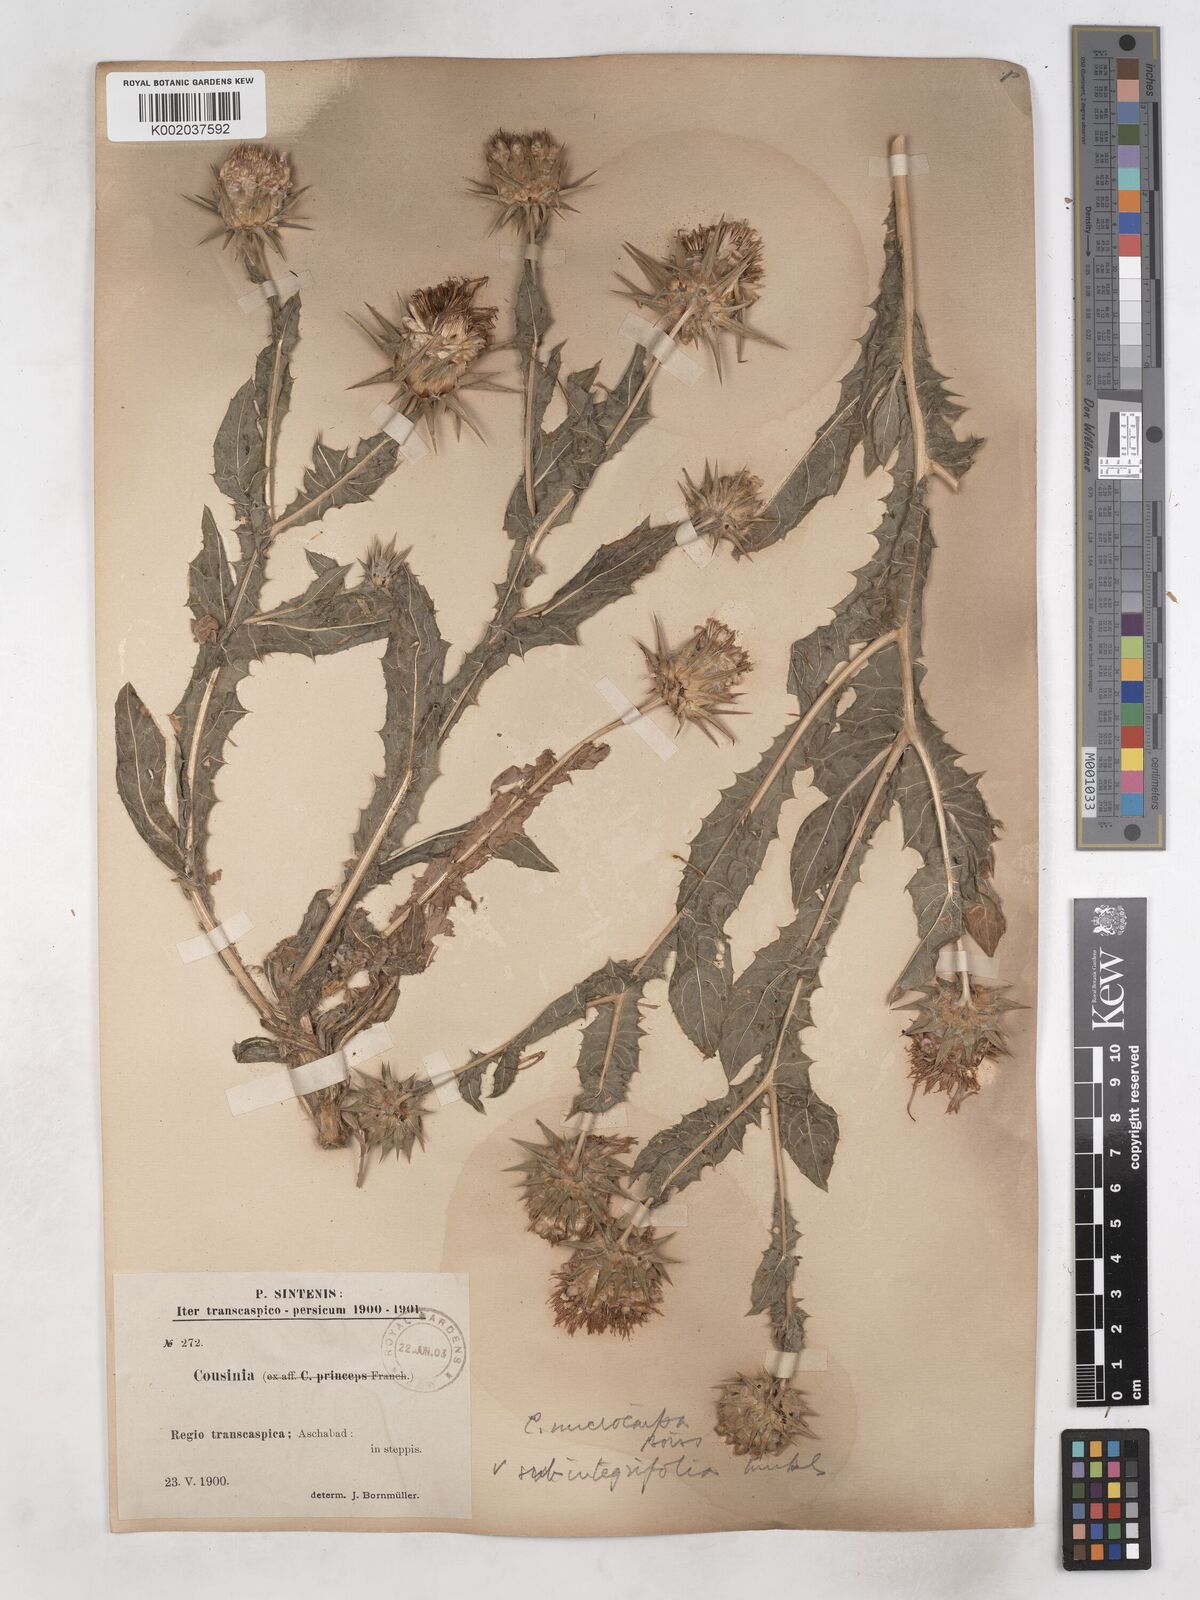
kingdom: Plantae
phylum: Tracheophyta
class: Magnoliopsida
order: Asterales
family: Asteraceae
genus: Cousinia
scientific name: Cousinia microcarpa
